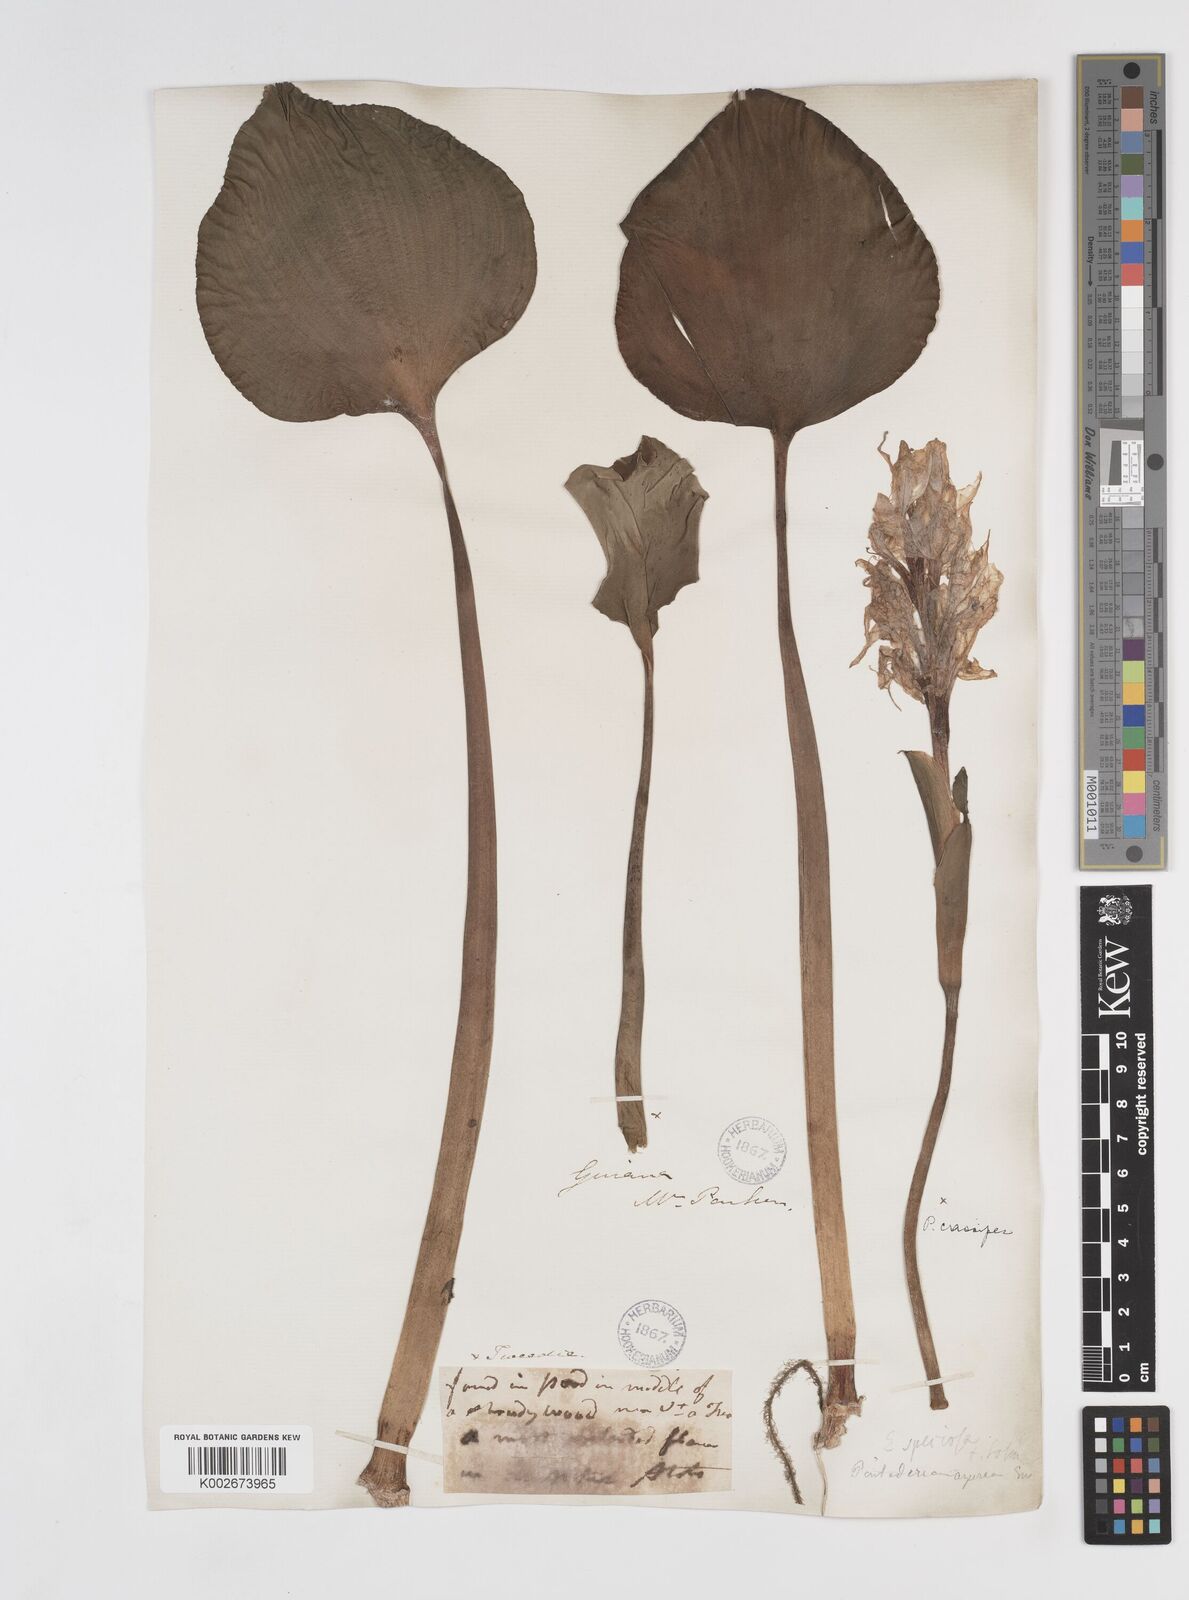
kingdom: Plantae
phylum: Tracheophyta
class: Liliopsida
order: Commelinales
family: Pontederiaceae
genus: Pontederia
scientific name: Pontederia crassipes
